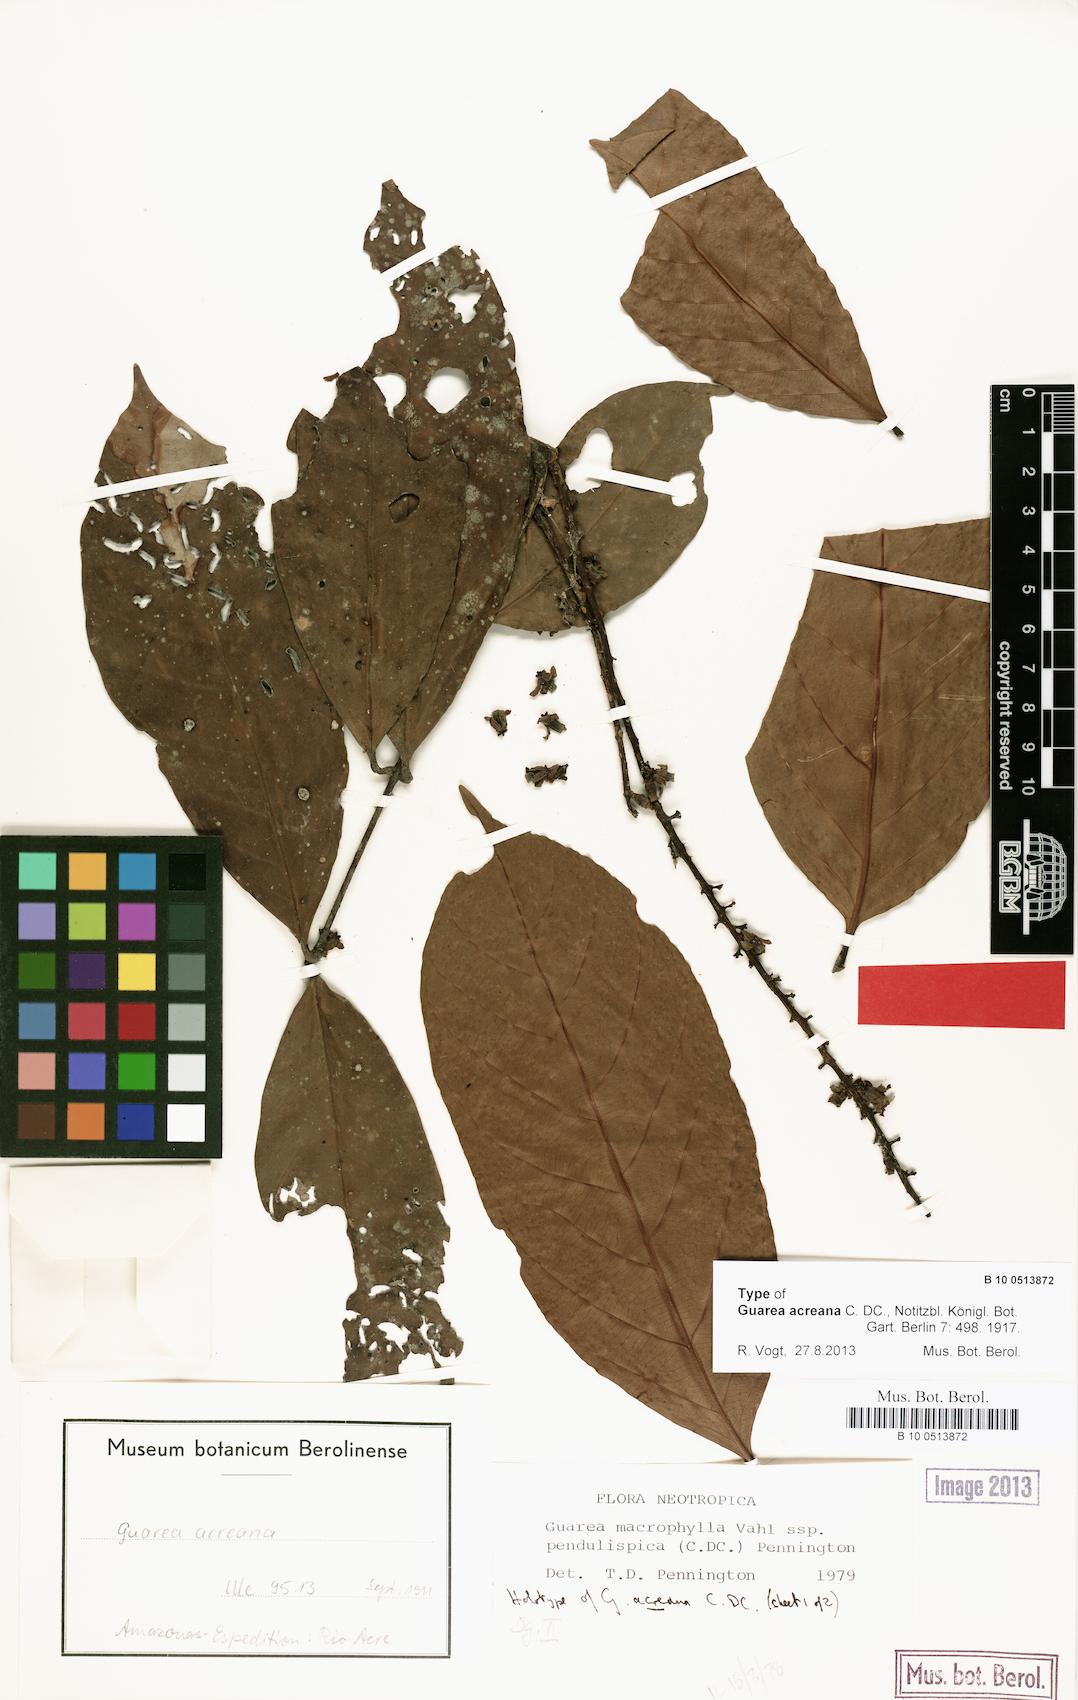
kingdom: Plantae
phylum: Tracheophyta
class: Magnoliopsida
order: Sapindales
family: Meliaceae
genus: Guarea
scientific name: Guarea macrophylla
